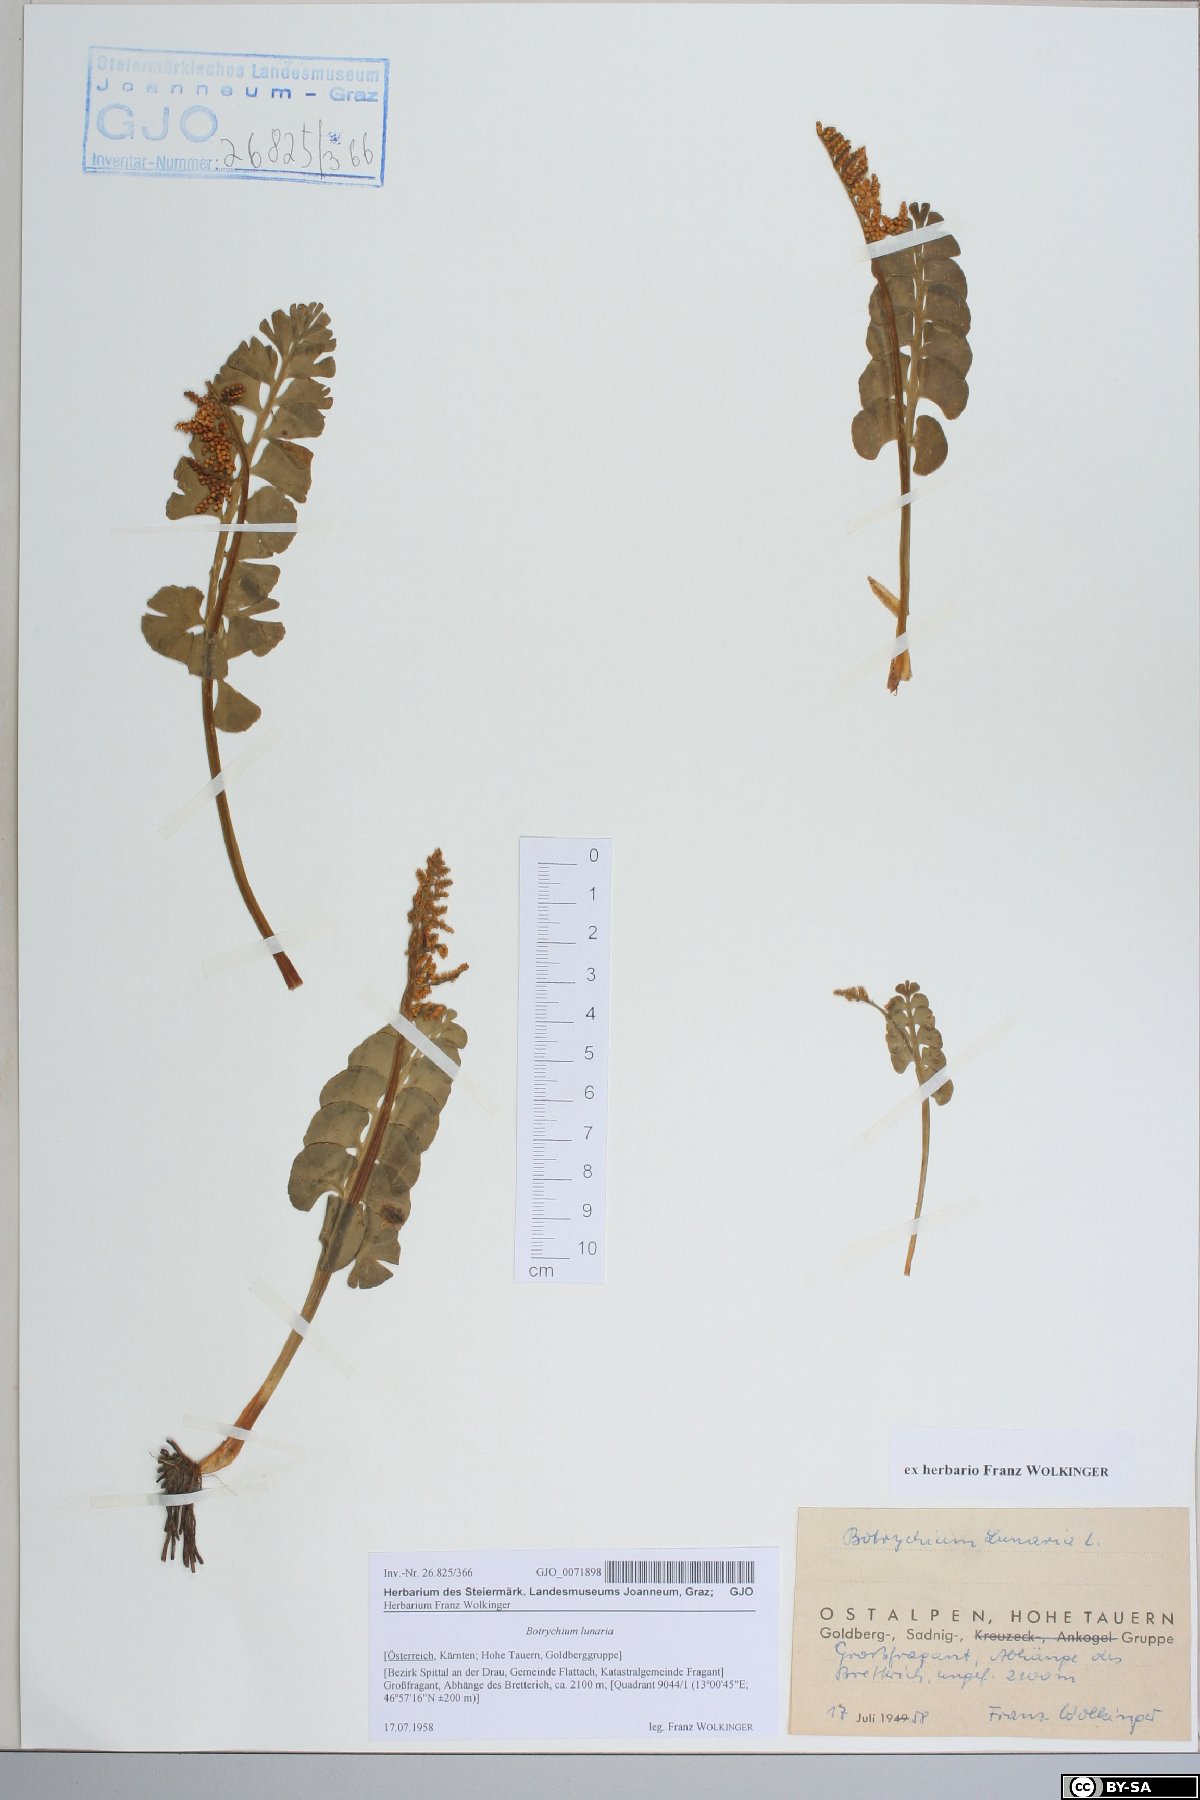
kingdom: Plantae
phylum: Tracheophyta
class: Polypodiopsida
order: Ophioglossales
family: Ophioglossaceae
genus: Botrychium
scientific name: Botrychium lunaria
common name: Moonwort
